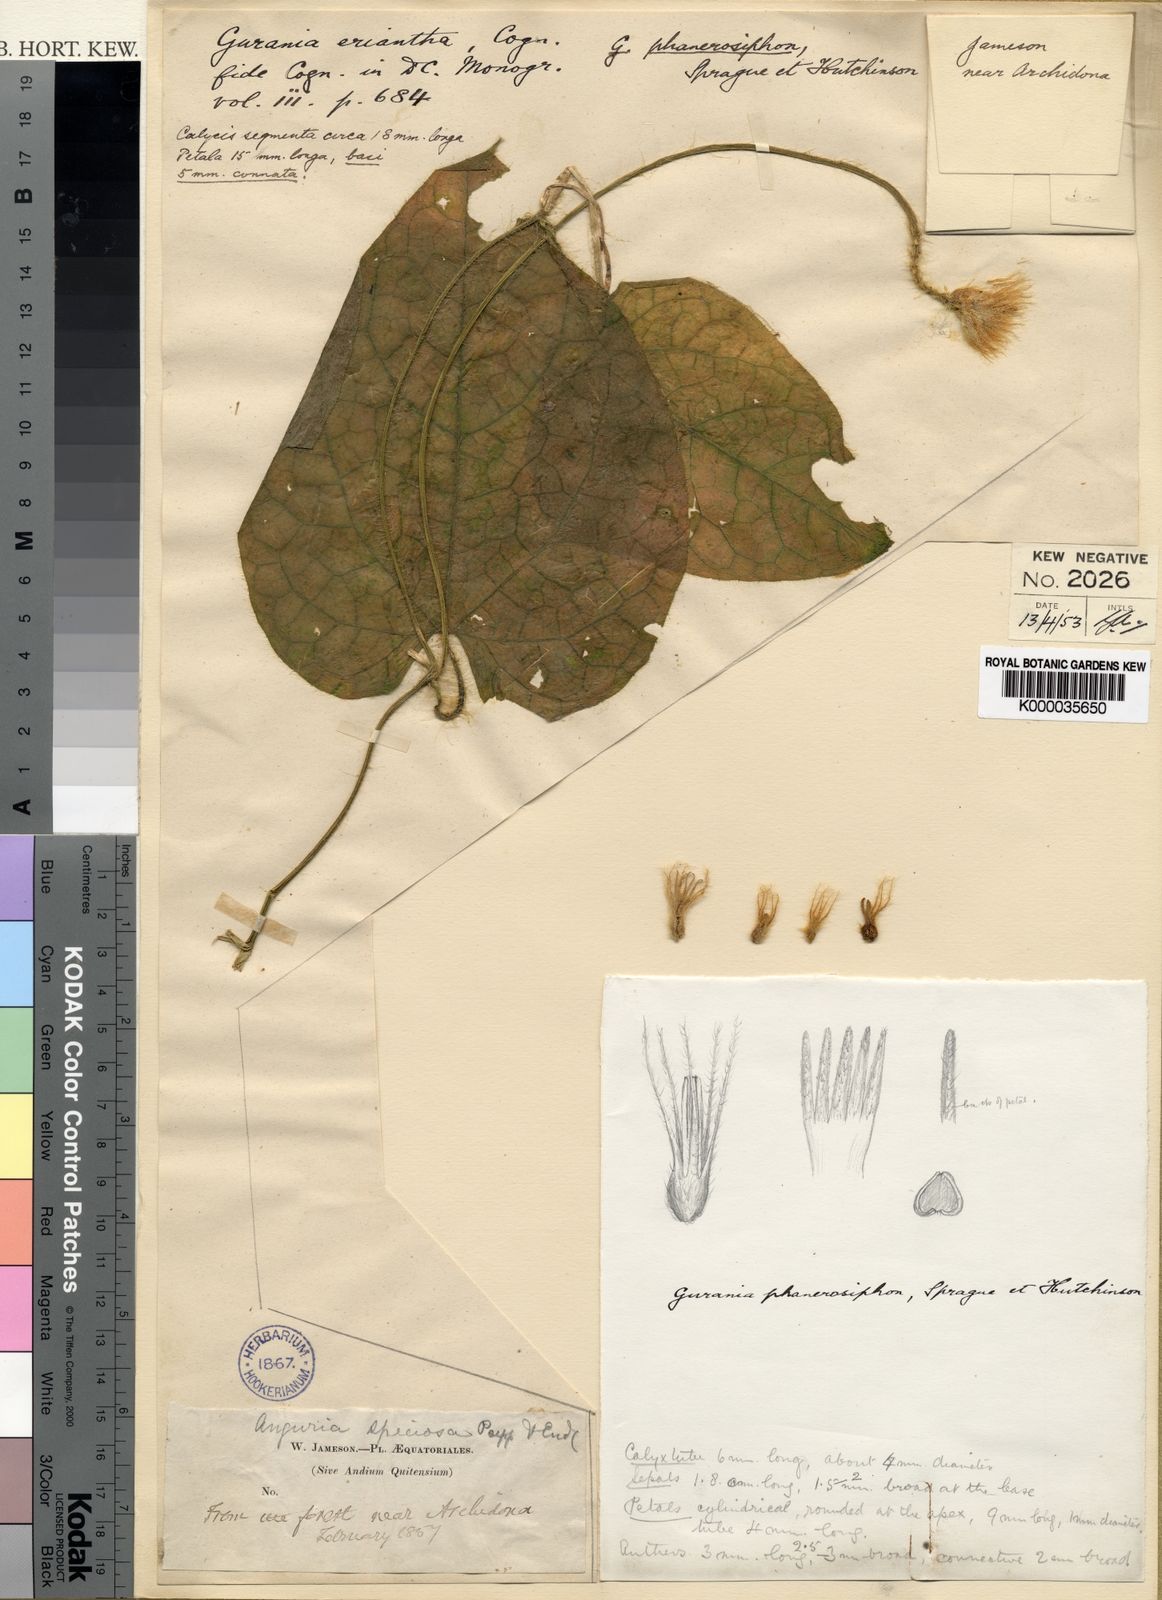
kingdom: Plantae
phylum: Tracheophyta
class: Magnoliopsida
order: Cucurbitales
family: Cucurbitaceae
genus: Gurania
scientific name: Gurania eriantha
